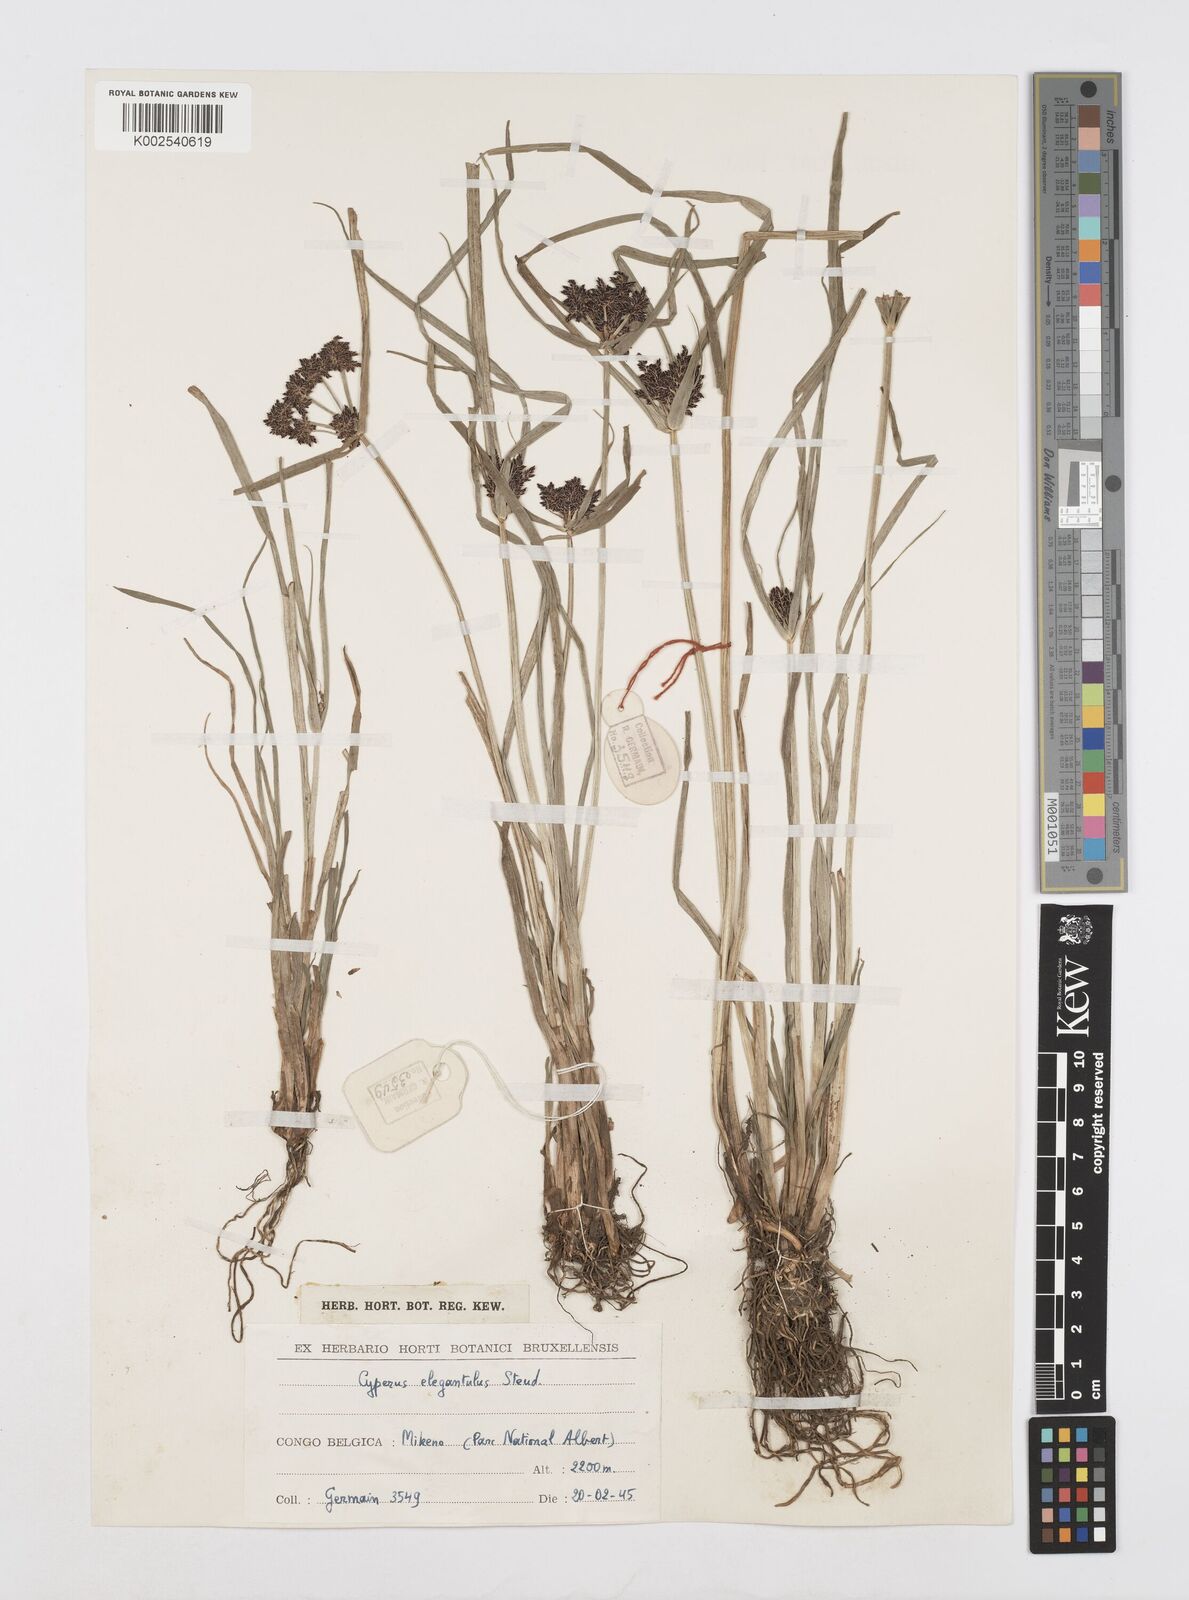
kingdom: Plantae
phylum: Tracheophyta
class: Liliopsida
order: Poales
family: Cyperaceae
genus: Cyperus
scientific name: Cyperus elegantulus
